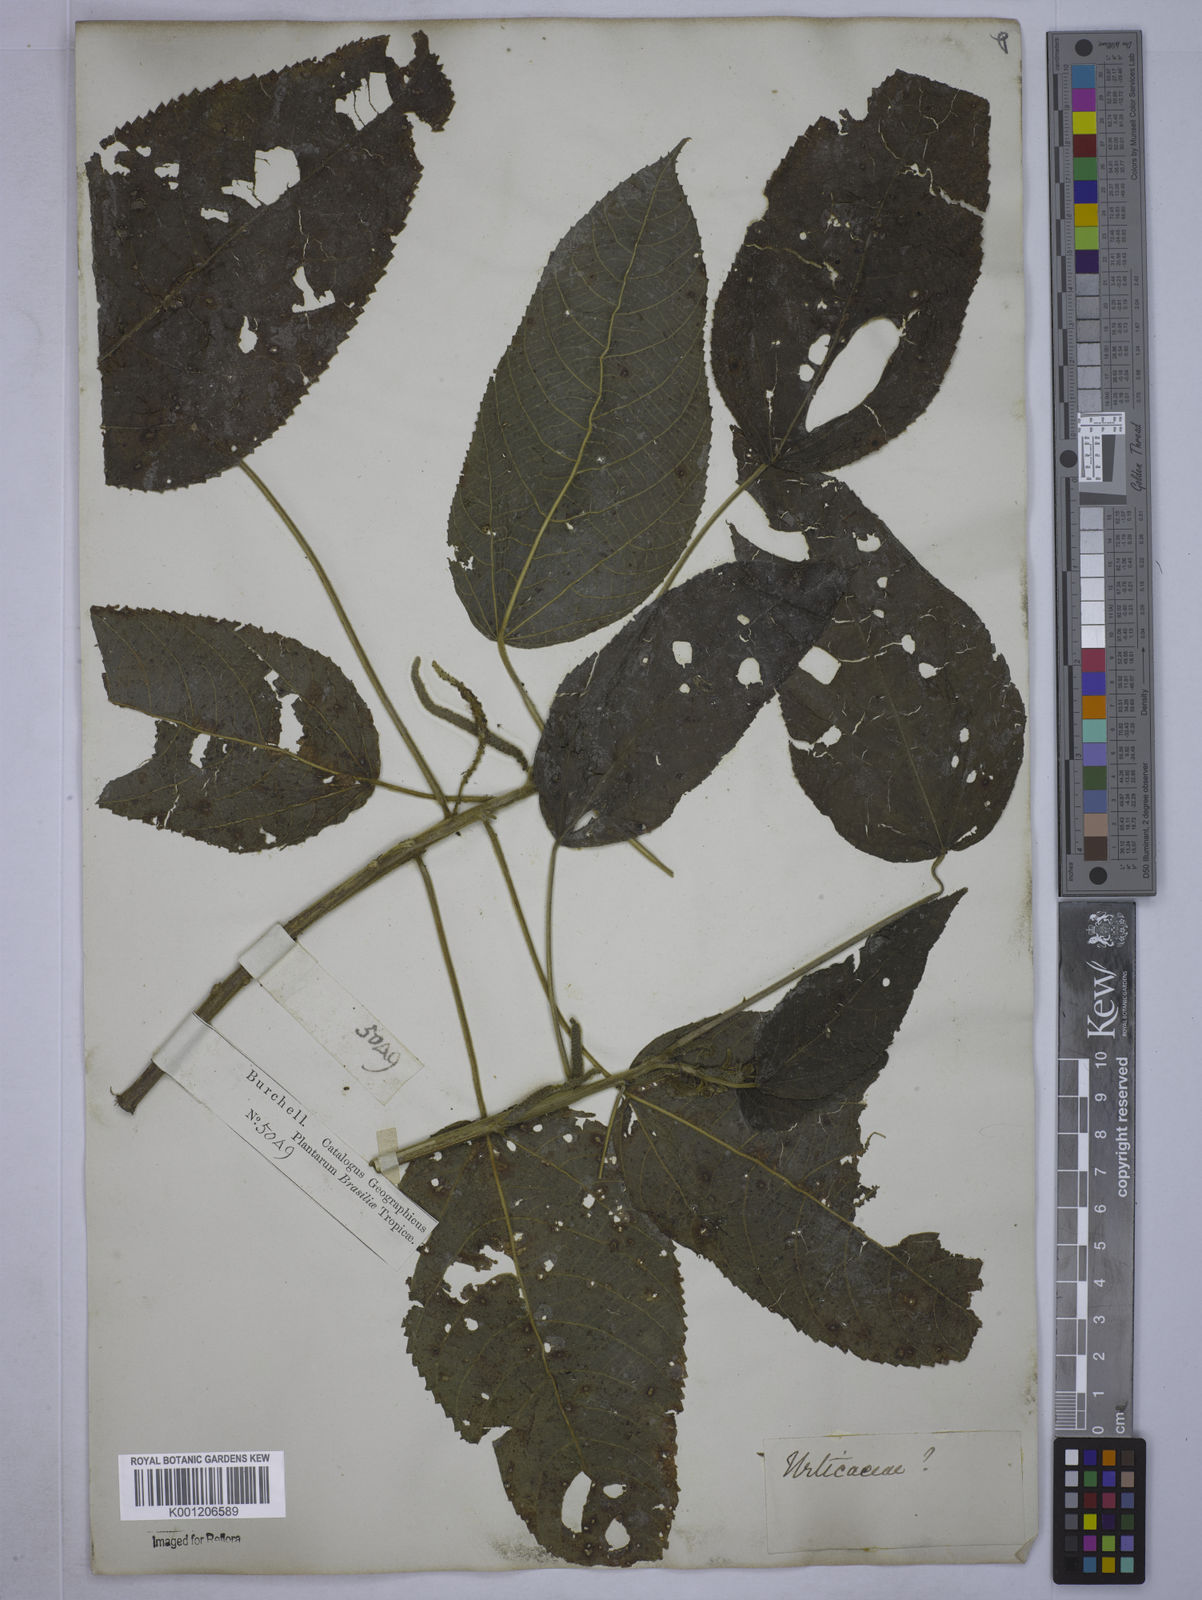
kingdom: Plantae
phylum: Tracheophyta
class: Magnoliopsida
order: Malpighiales
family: Euphorbiaceae
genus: Acalypha
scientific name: Acalypha
